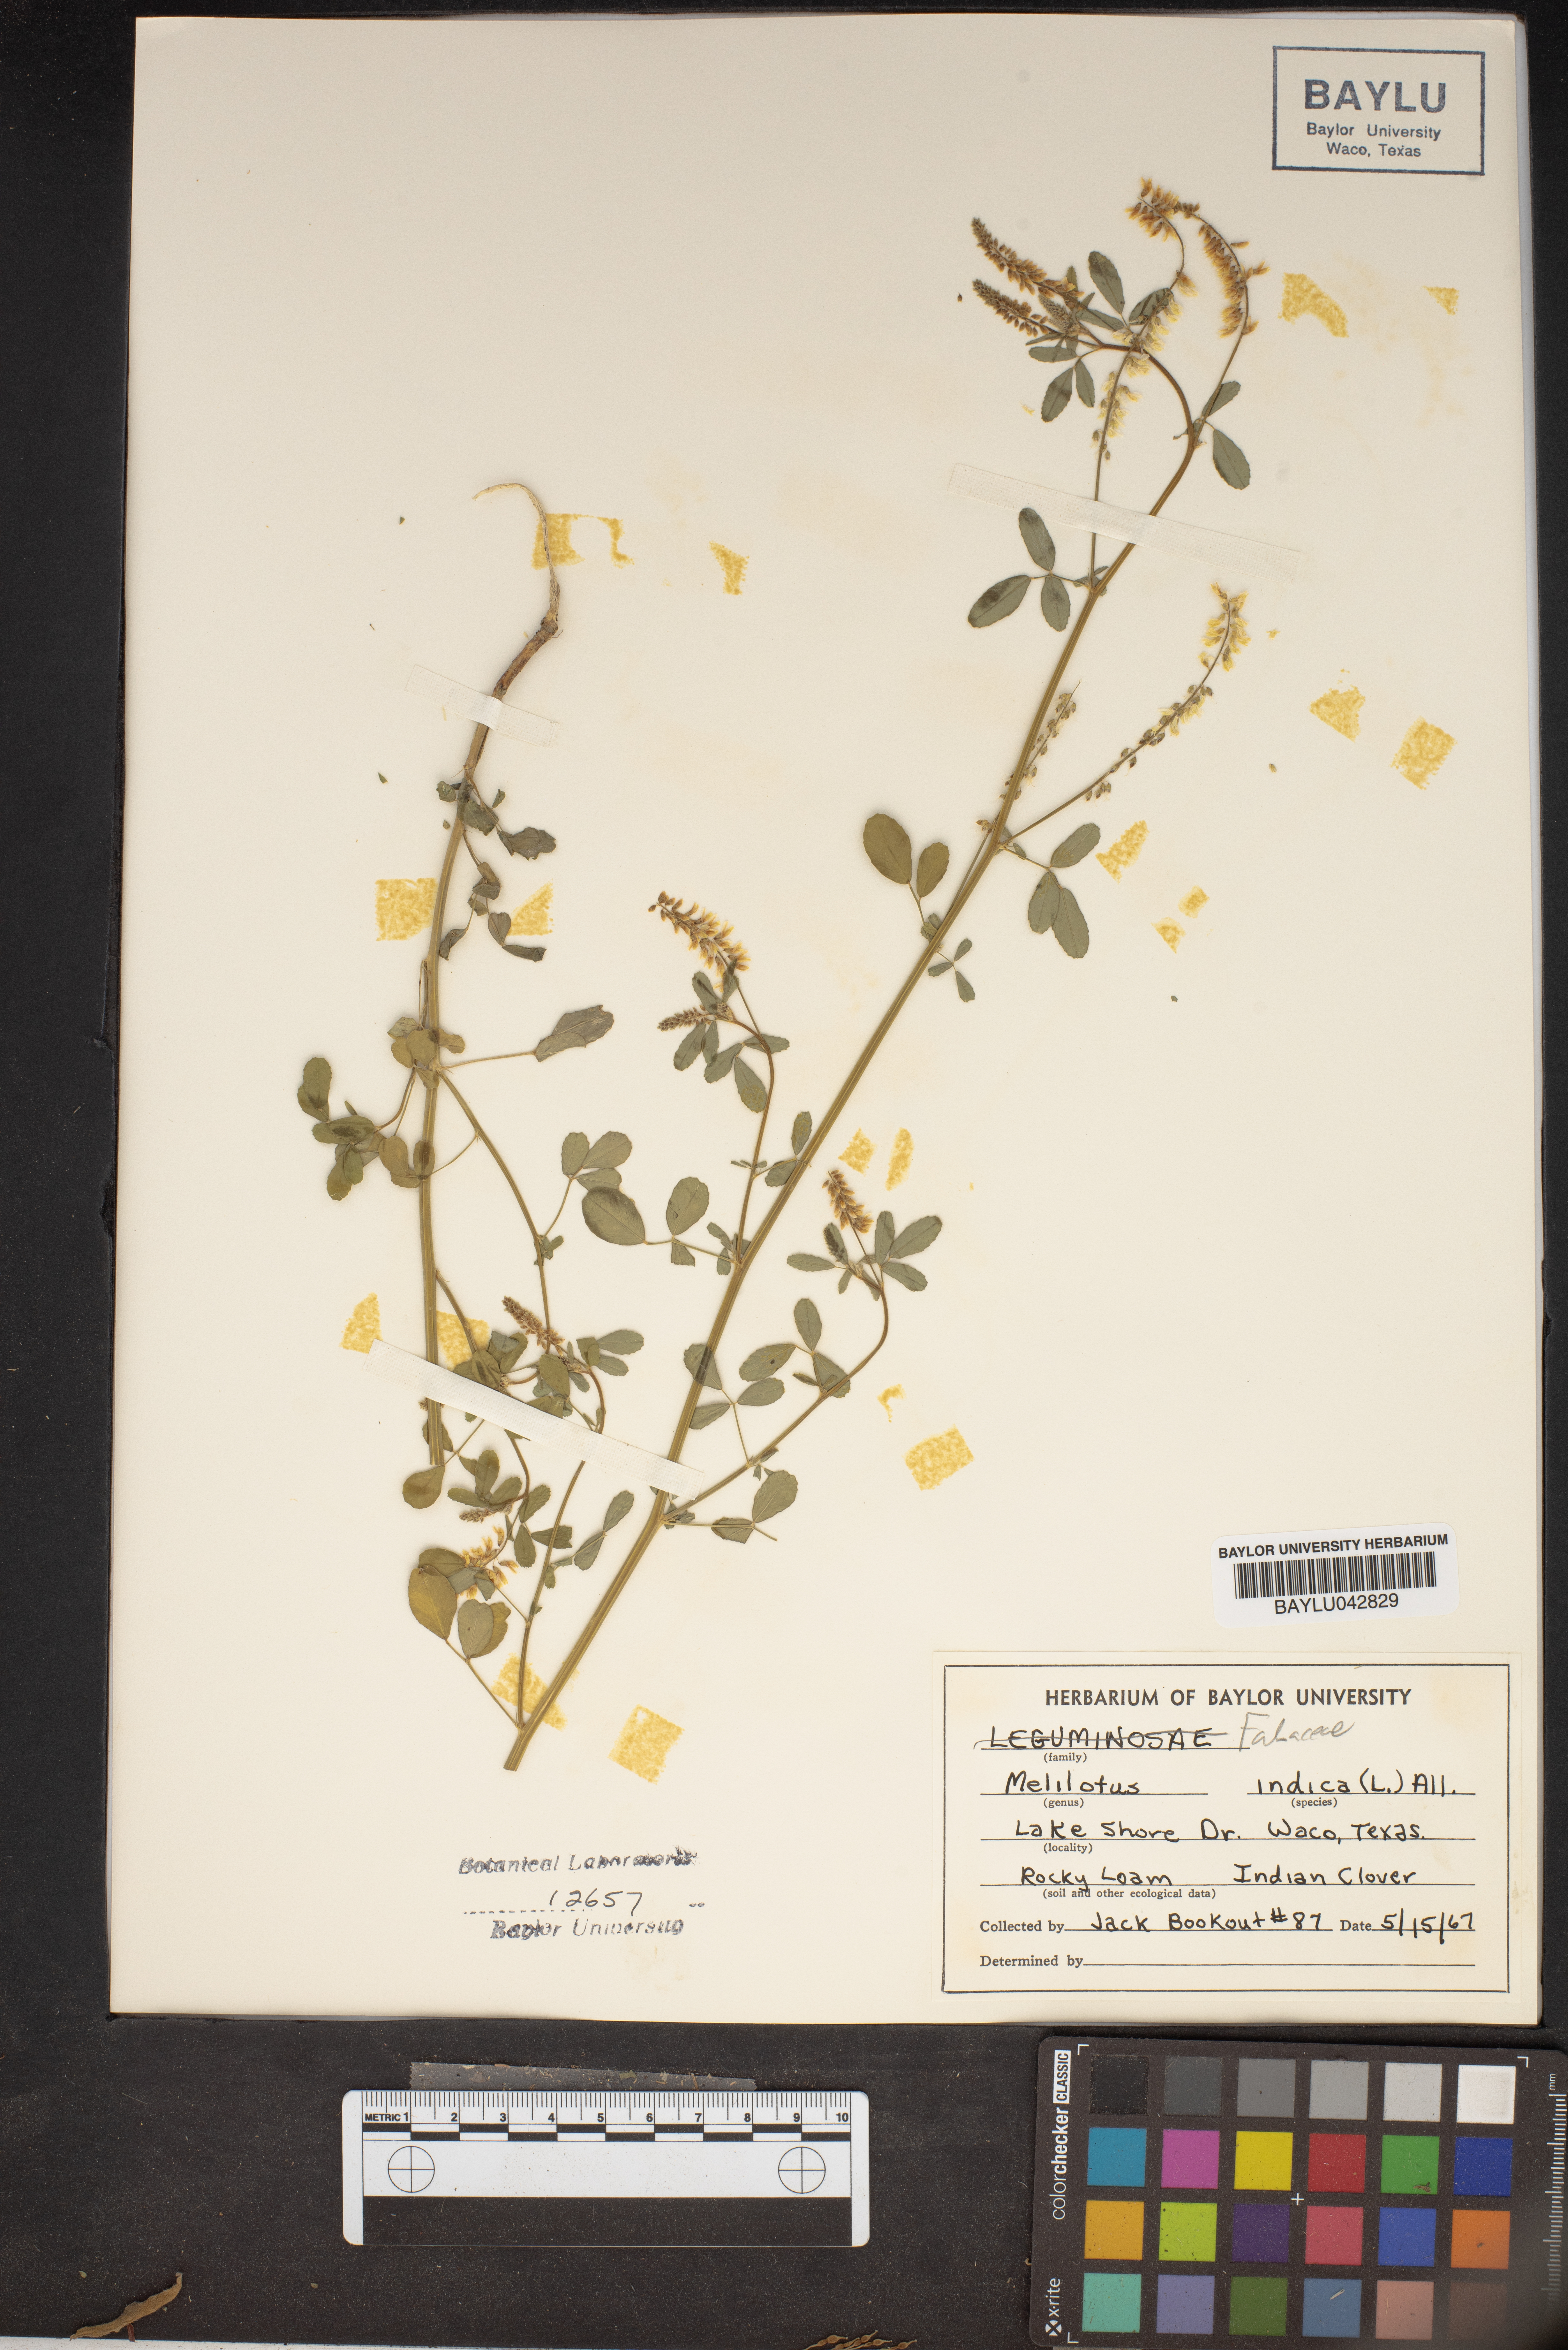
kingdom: Plantae
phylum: Tracheophyta
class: Magnoliopsida
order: Fabales
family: Fabaceae
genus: Melilotus
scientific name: Melilotus indicus
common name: Small melilot
